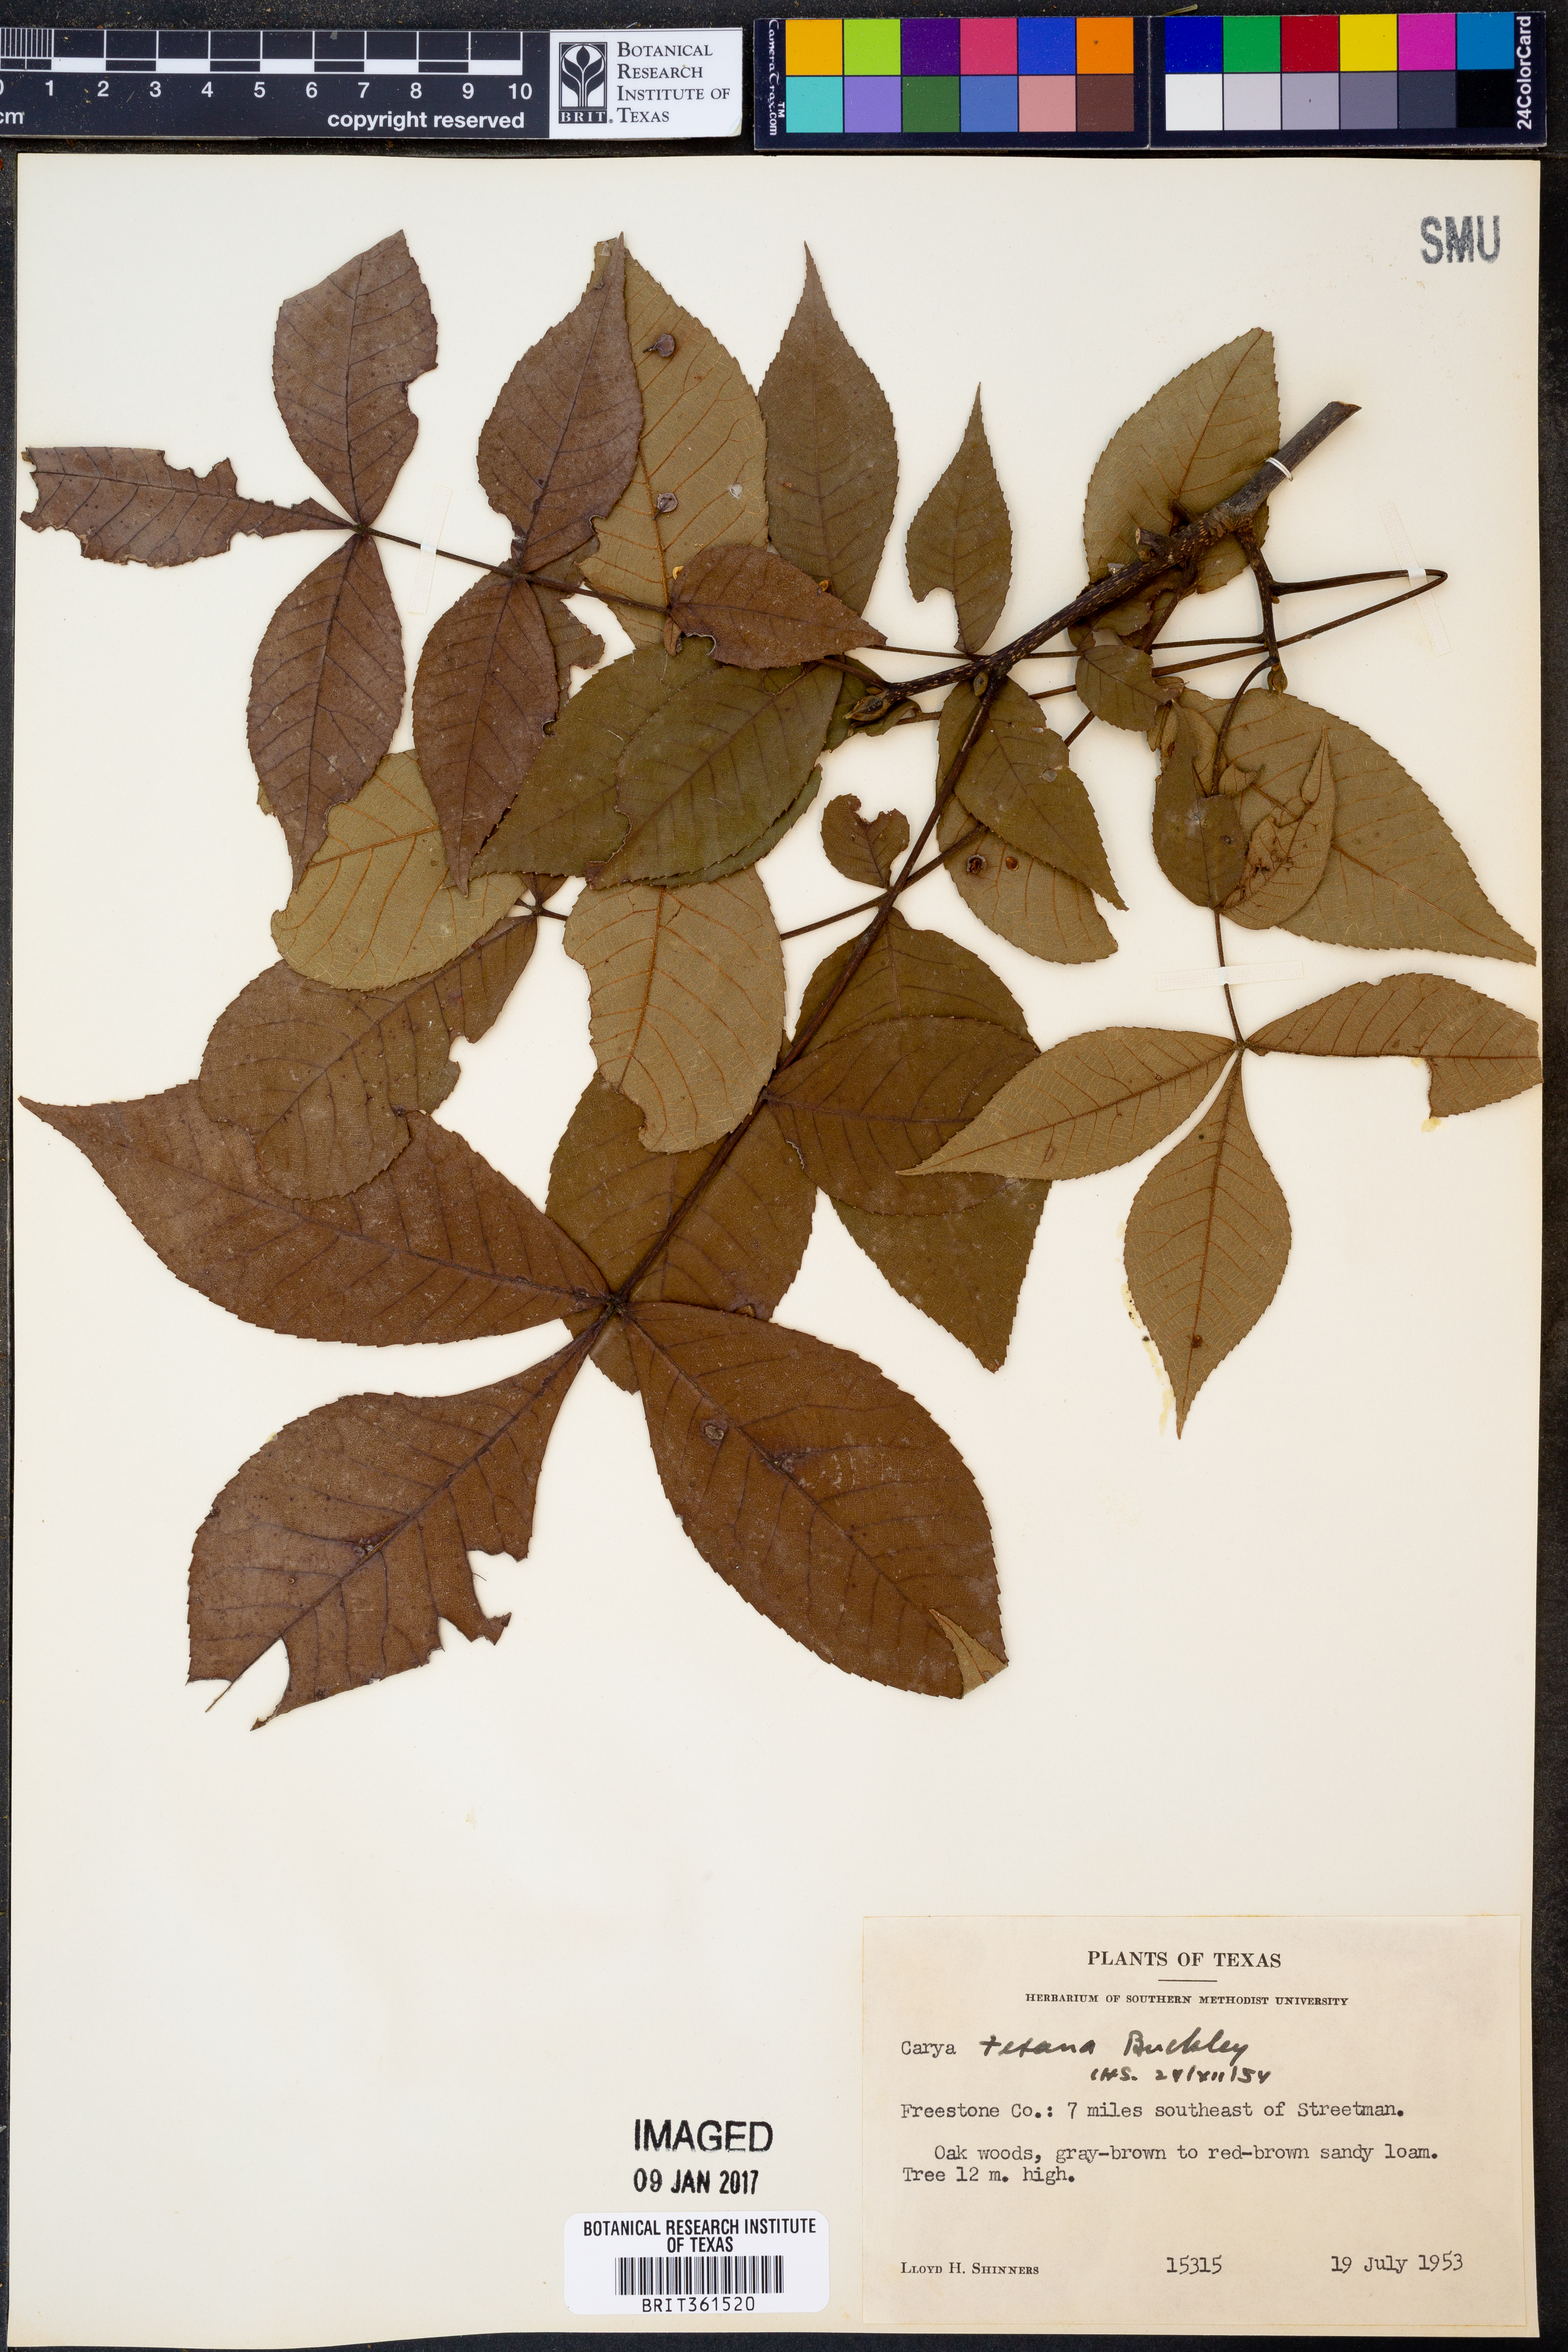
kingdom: Plantae
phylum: Tracheophyta
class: Magnoliopsida
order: Fagales
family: Juglandaceae
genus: Carya
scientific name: Carya texana
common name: Black hickory
